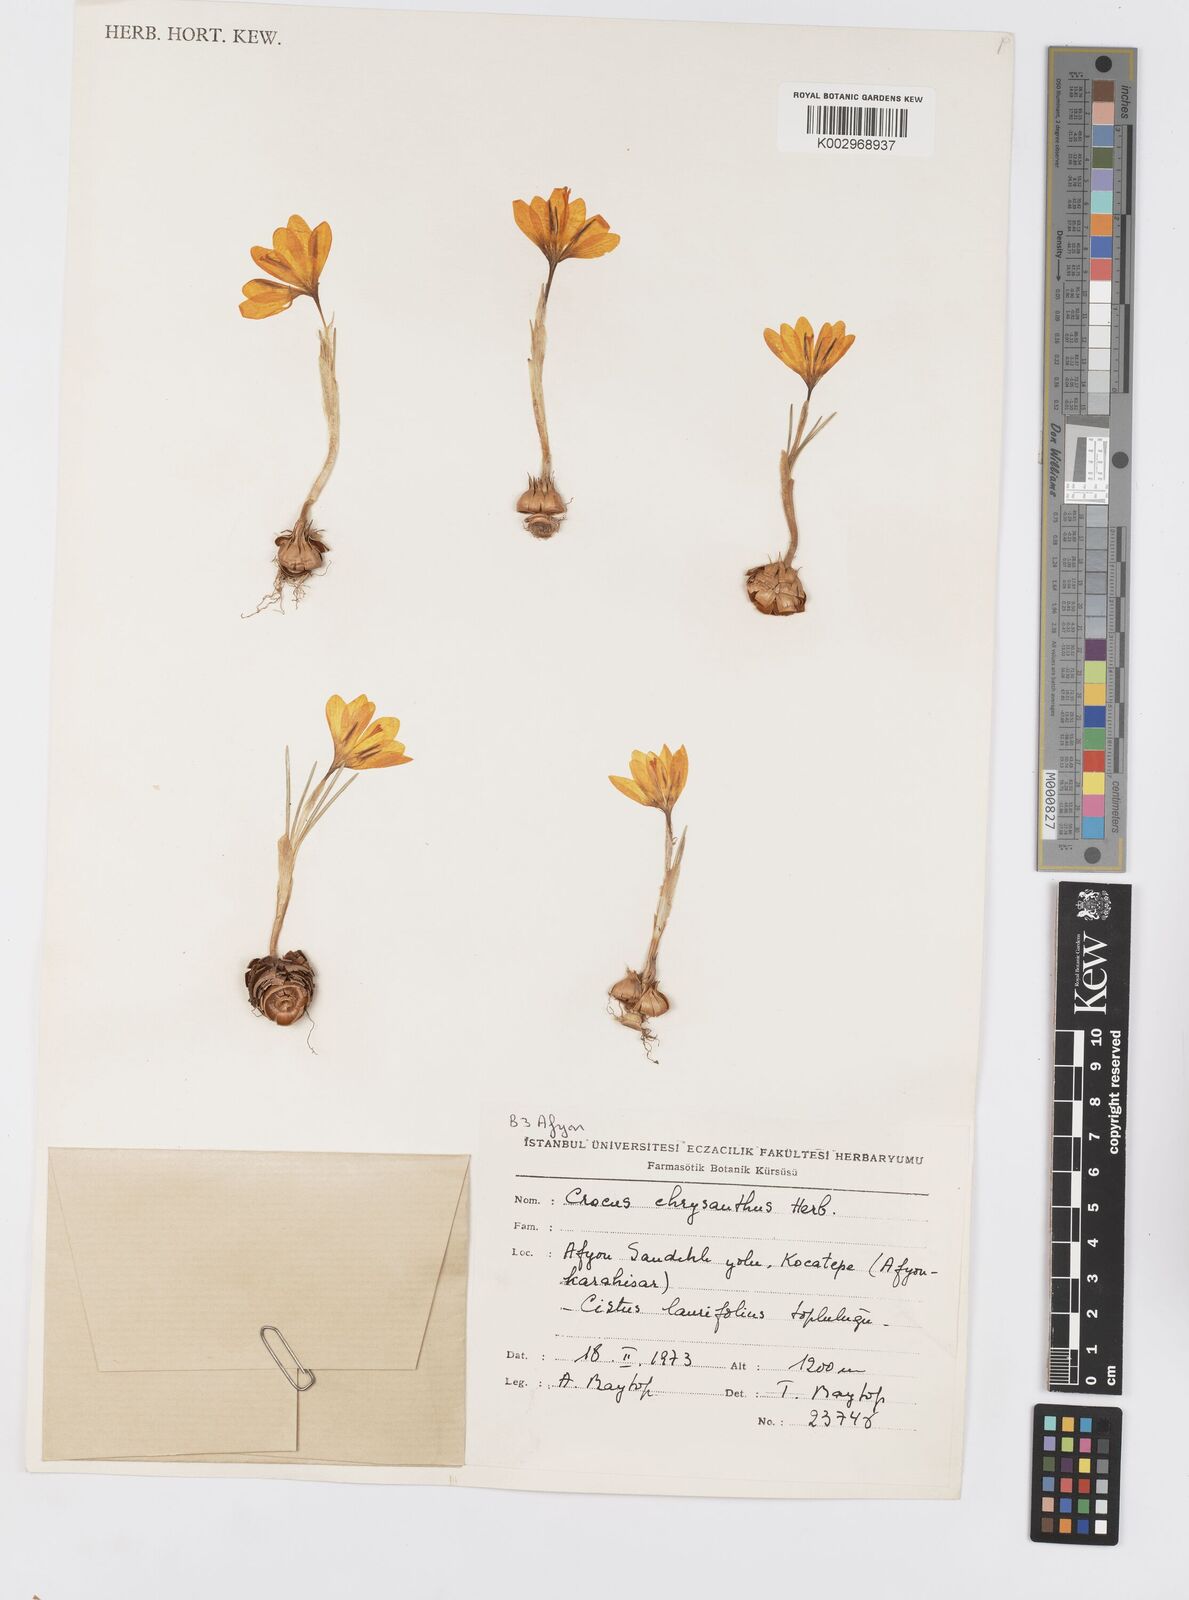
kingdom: Plantae
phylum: Tracheophyta
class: Liliopsida
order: Asparagales
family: Iridaceae
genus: Crocus
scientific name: Crocus chrysanthus
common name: Golden crocus
